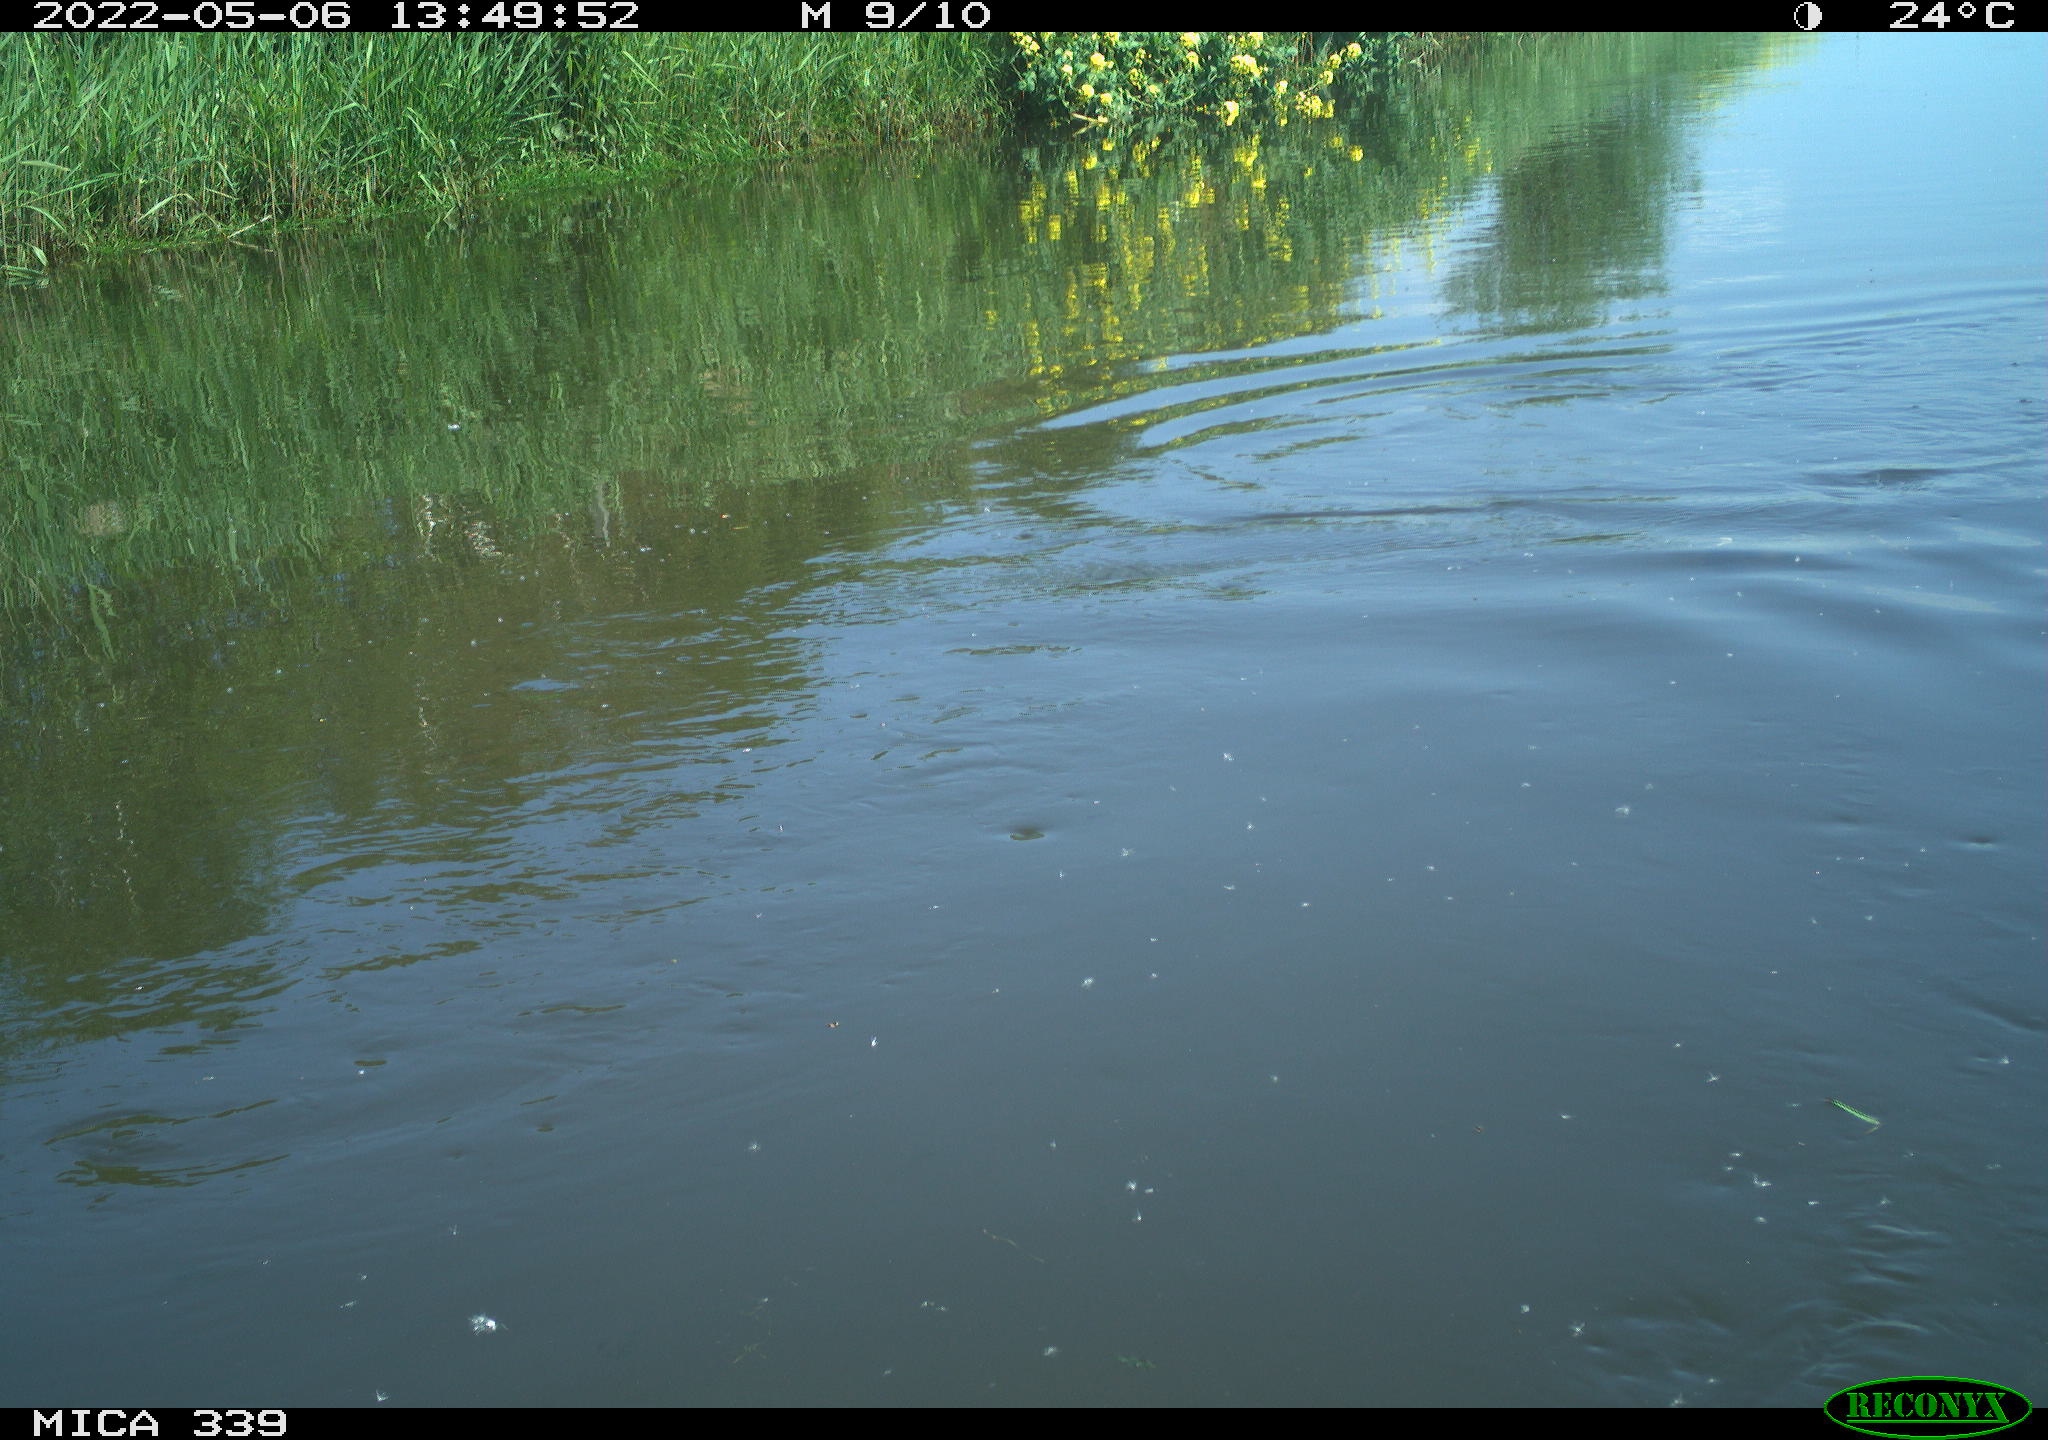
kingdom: Animalia
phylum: Chordata
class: Aves
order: Gruiformes
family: Rallidae
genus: Fulica
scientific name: Fulica atra
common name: Eurasian coot
